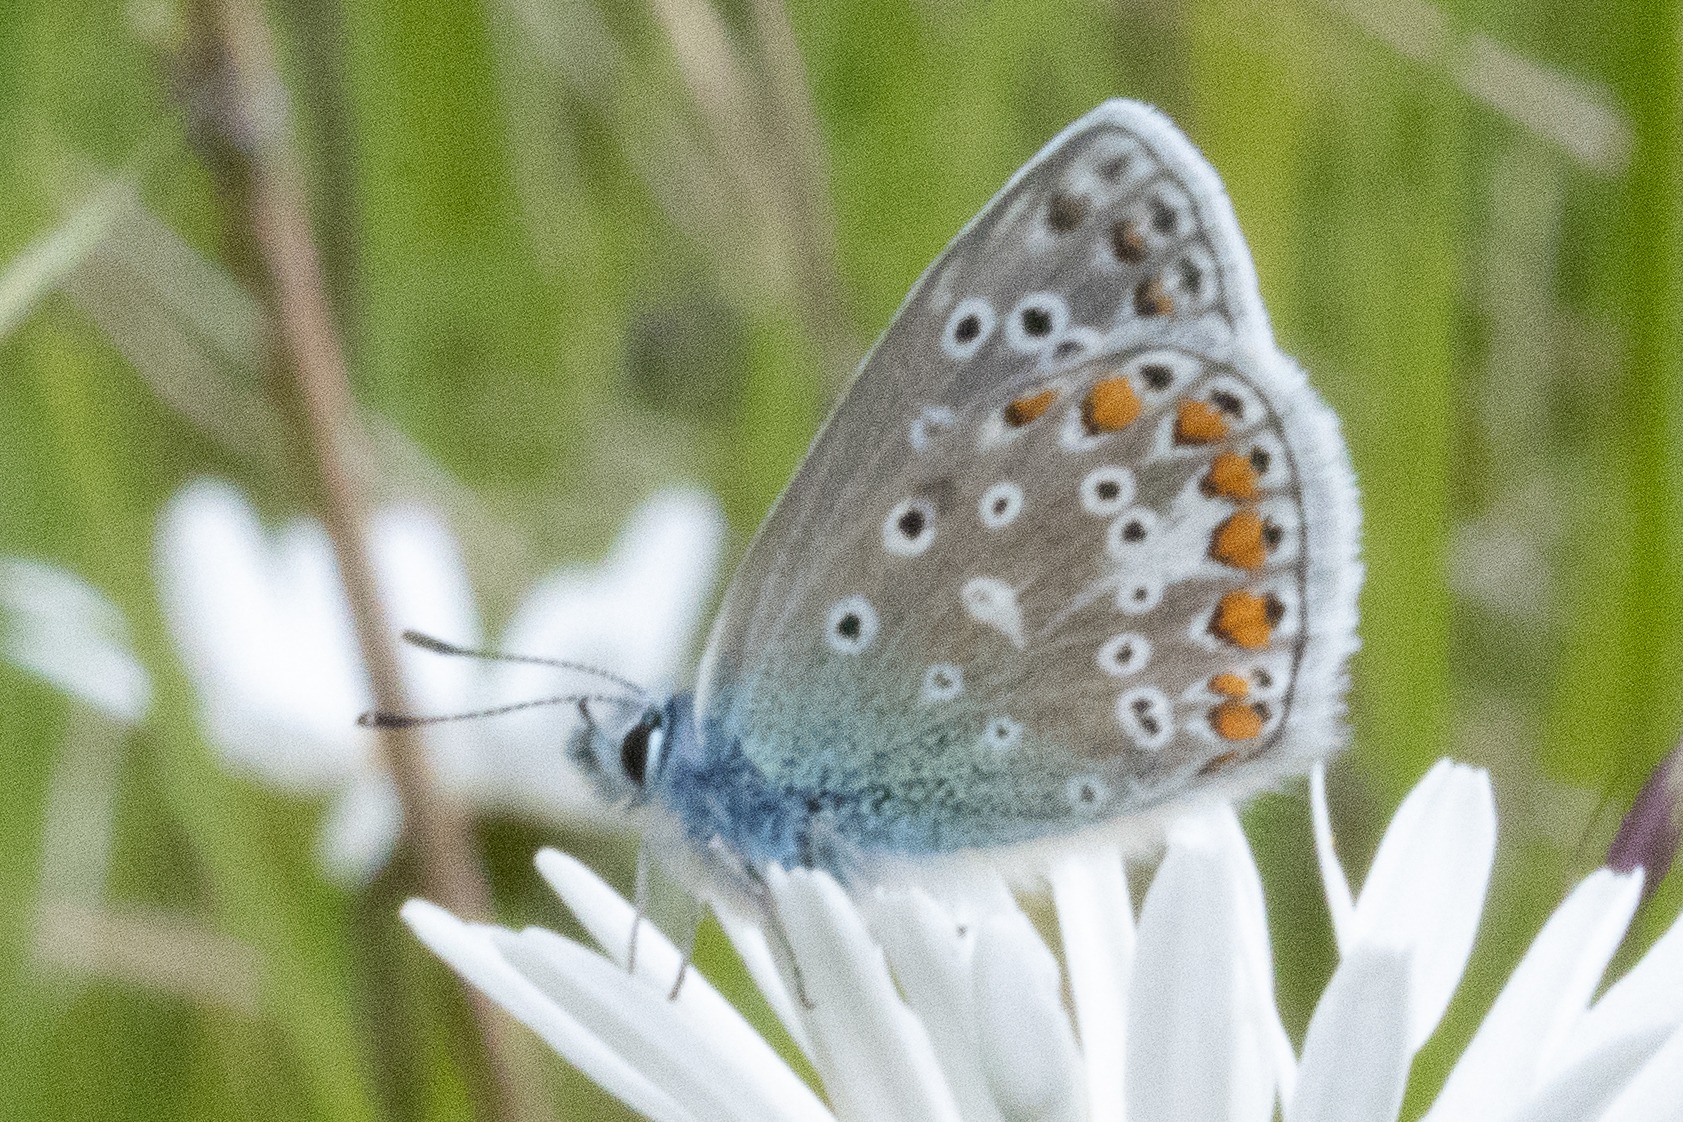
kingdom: Animalia
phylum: Arthropoda
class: Insecta
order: Lepidoptera
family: Lycaenidae
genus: Polyommatus
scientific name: Polyommatus icarus
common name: Almindelig blåfugl
